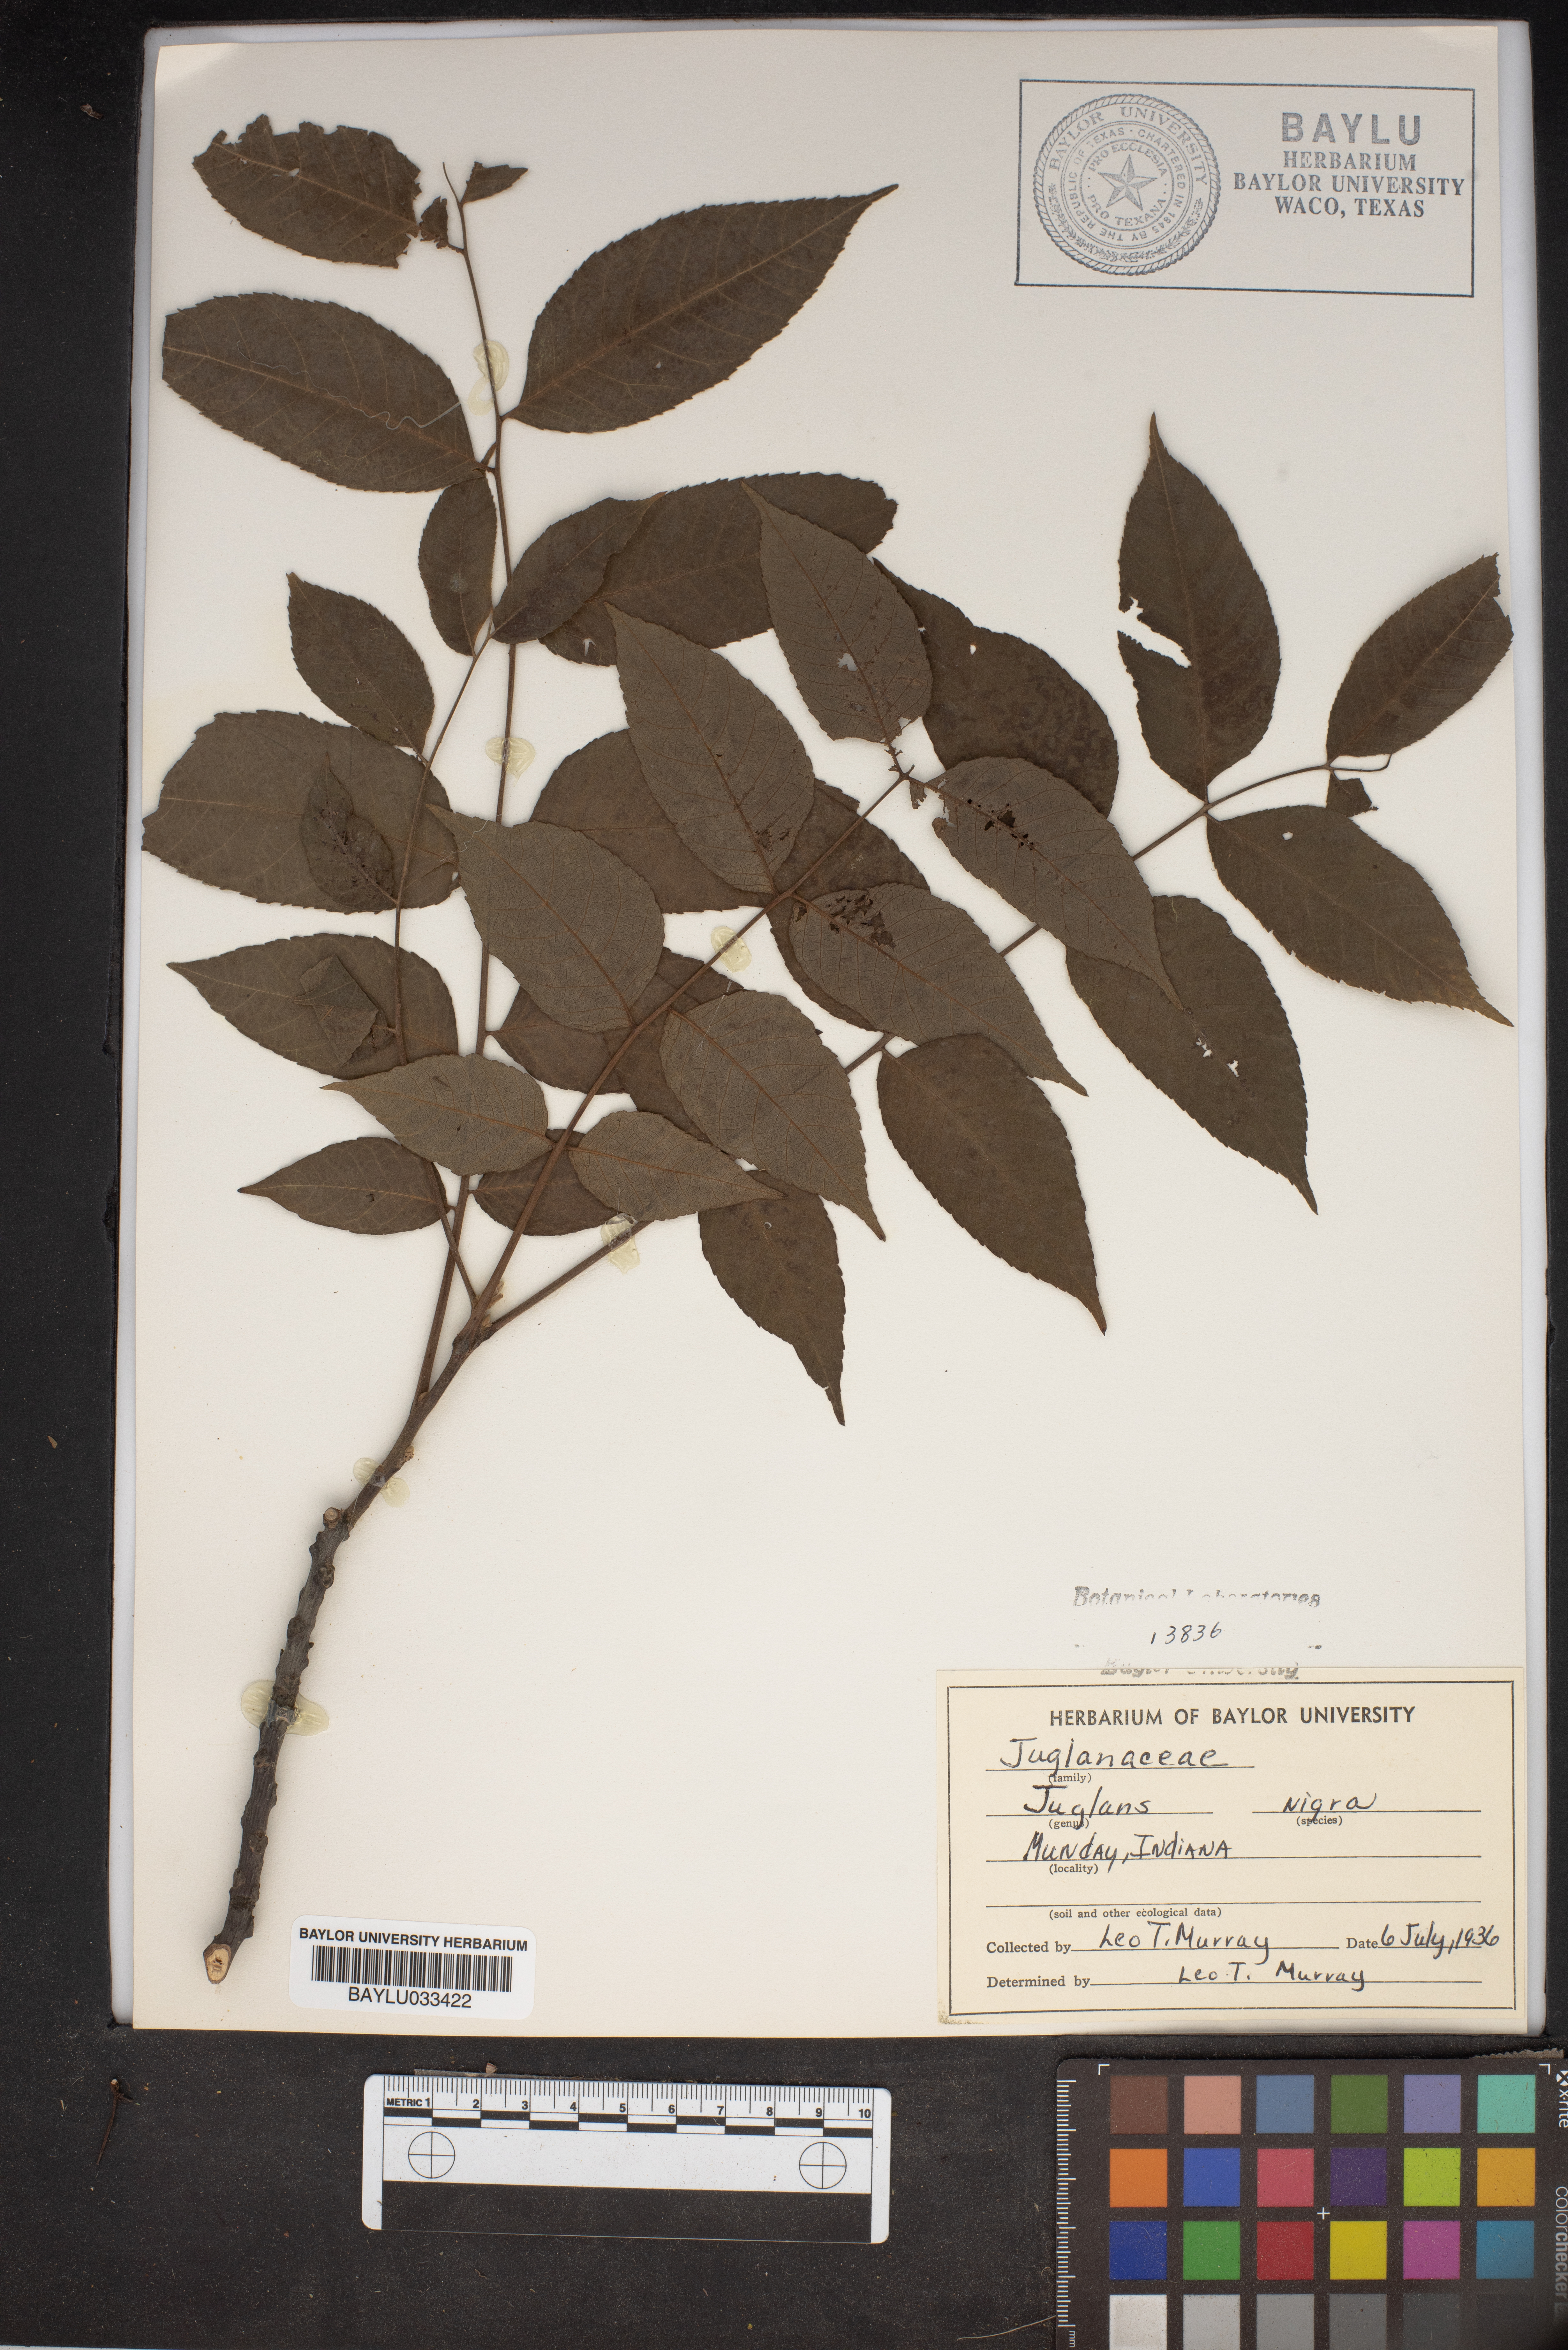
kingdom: Plantae
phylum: Tracheophyta
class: Magnoliopsida
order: Fagales
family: Juglandaceae
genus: Juglans
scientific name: Juglans nigra
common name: Black walnut
